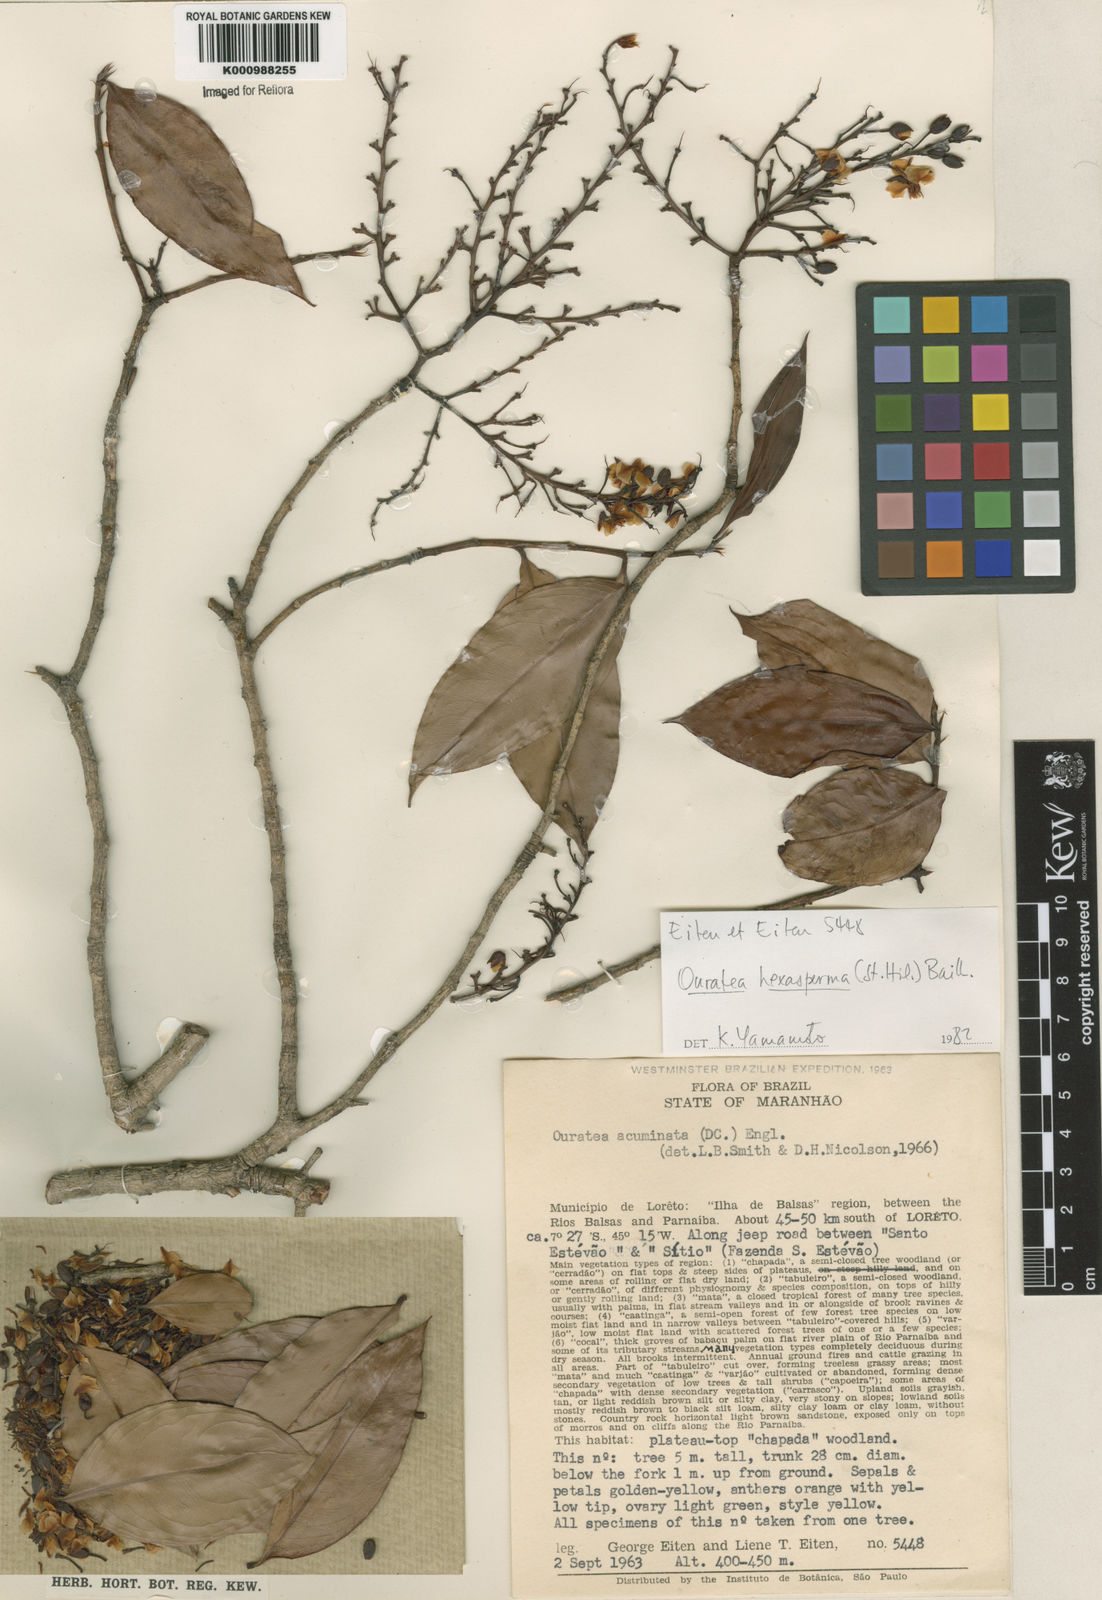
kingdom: Plantae
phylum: Tracheophyta
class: Magnoliopsida
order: Malpighiales
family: Ochnaceae
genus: Ouratea
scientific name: Ouratea hexasperma
